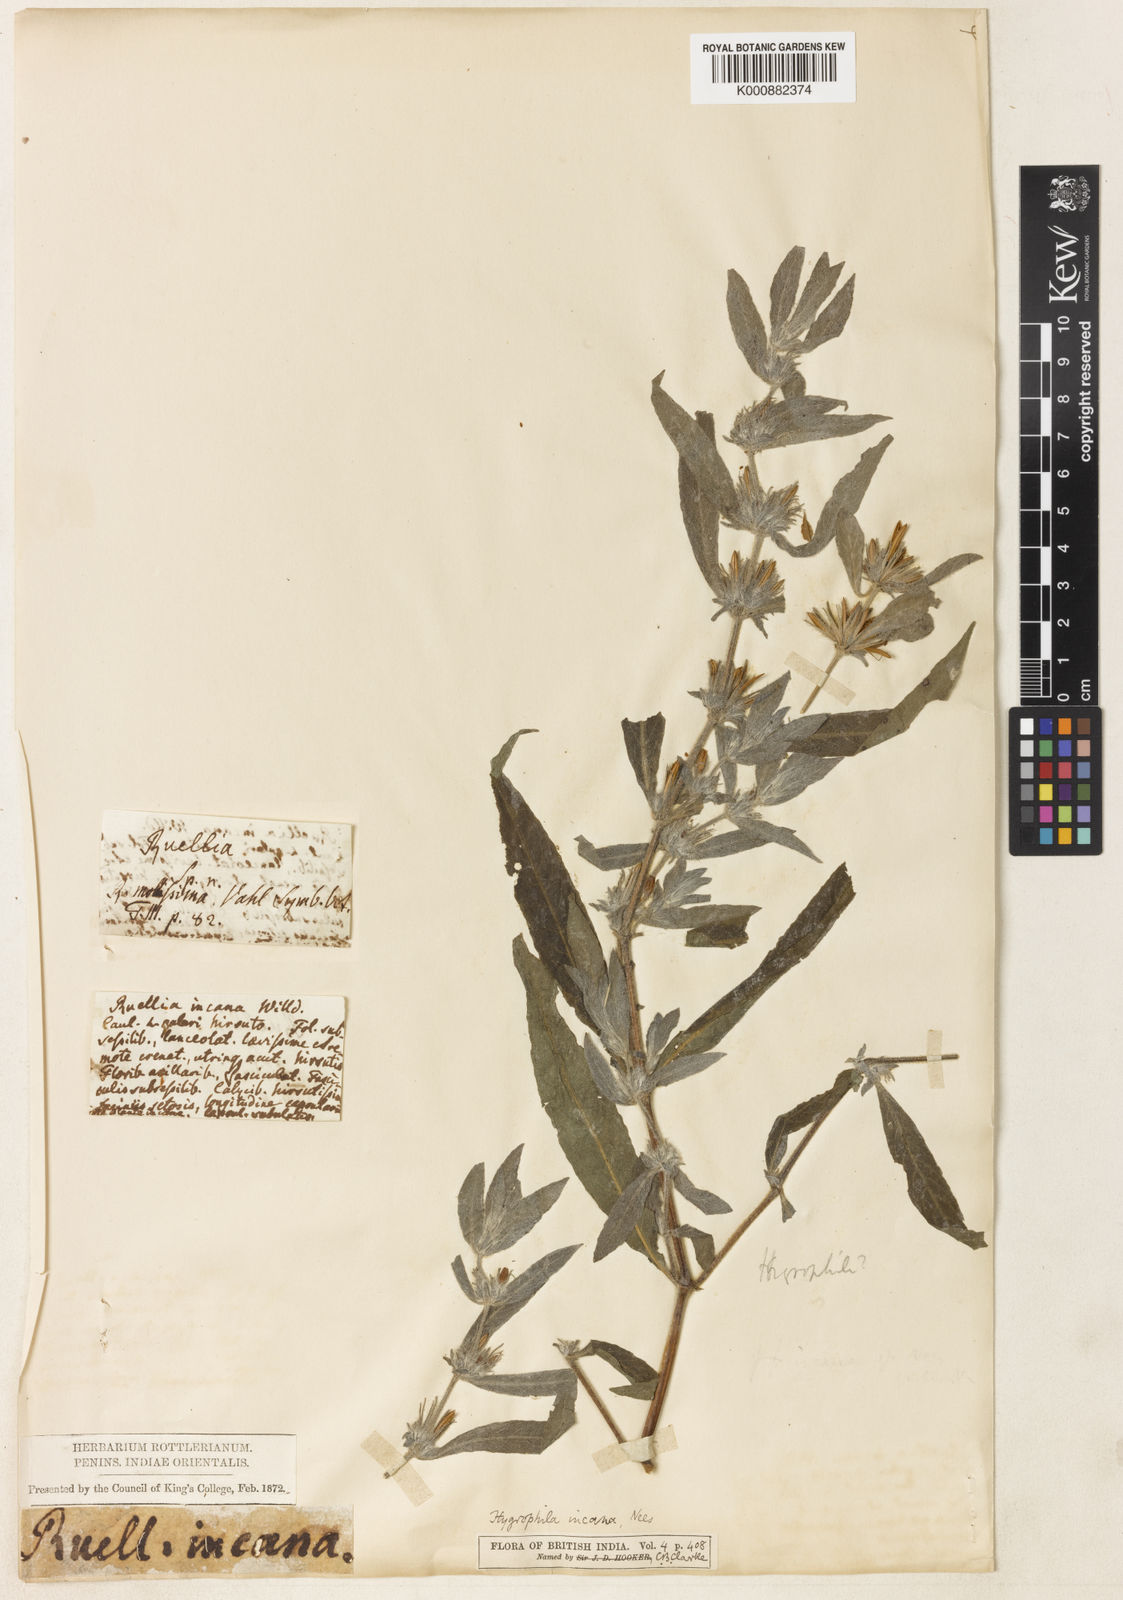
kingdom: Plantae
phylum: Tracheophyta
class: Magnoliopsida
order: Lamiales
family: Acanthaceae
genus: Hygrophila
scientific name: Hygrophila incana
